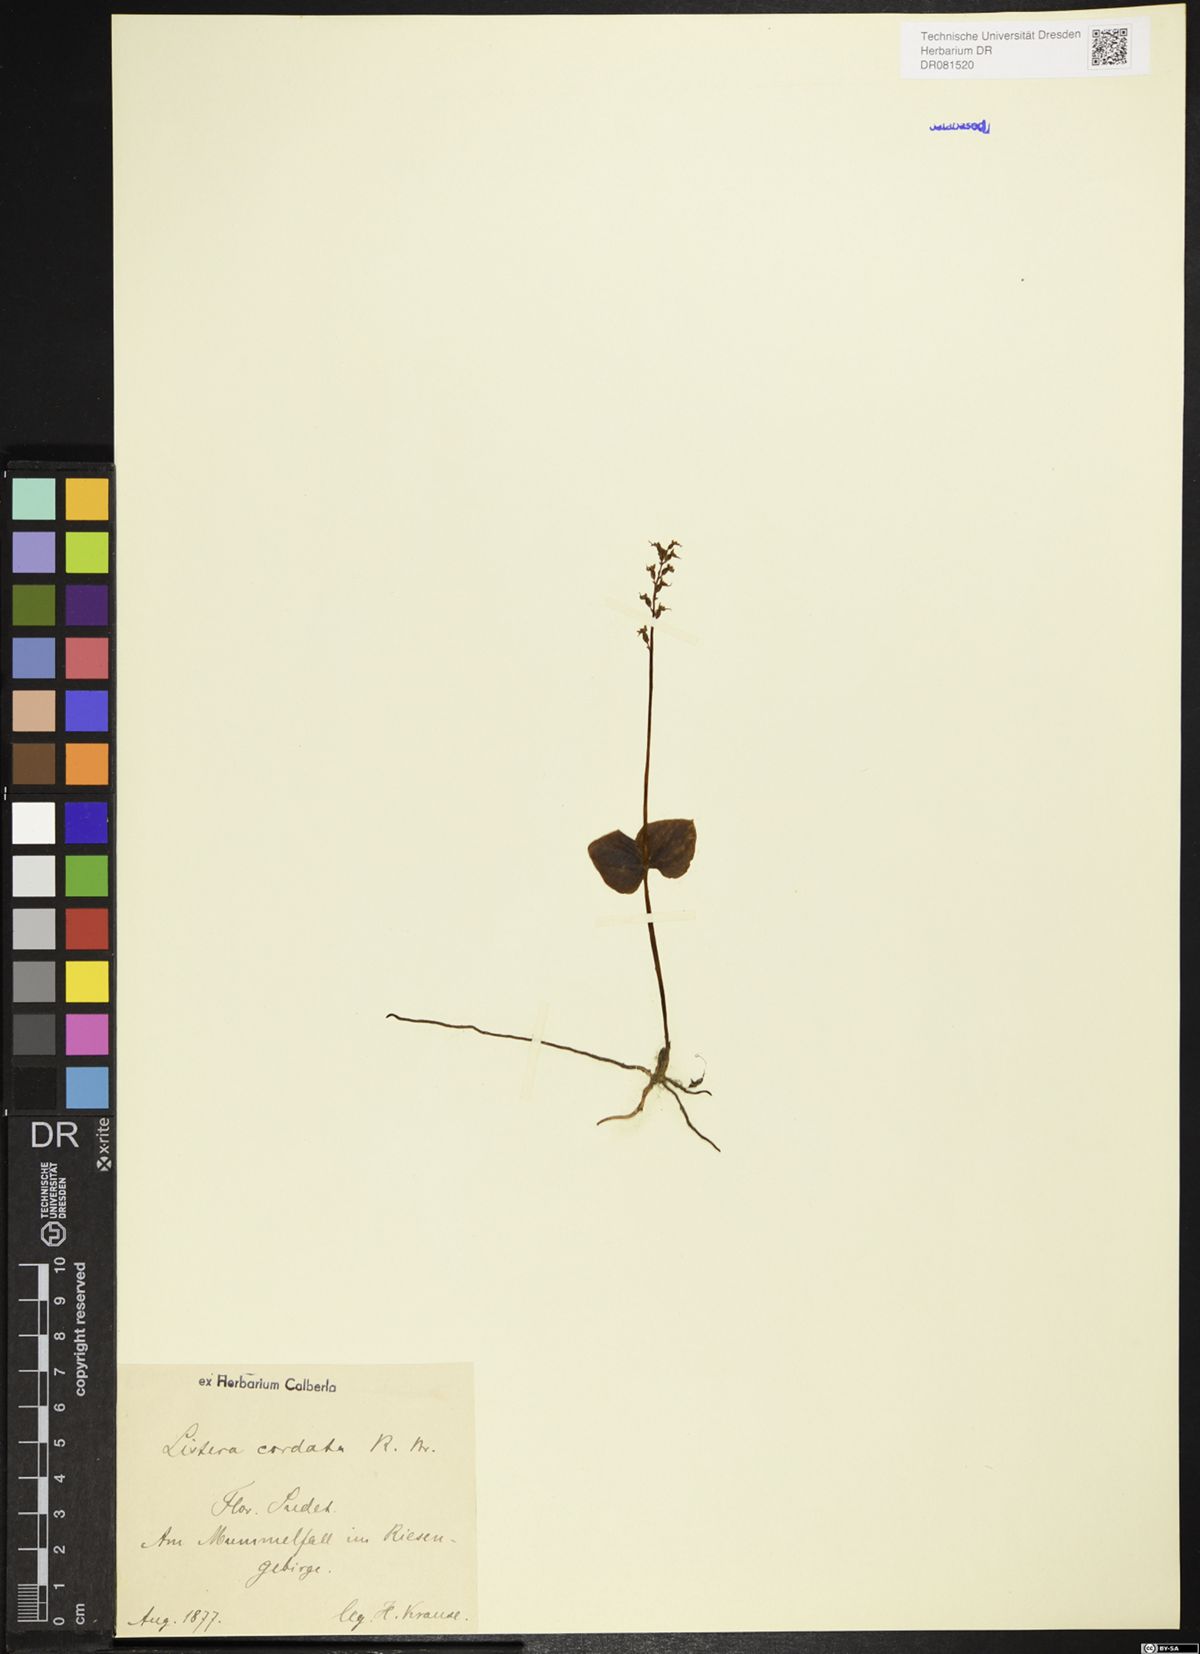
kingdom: Plantae
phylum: Tracheophyta
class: Liliopsida
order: Asparagales
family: Orchidaceae
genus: Neottia
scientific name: Neottia cordata
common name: Lesser twayblade
